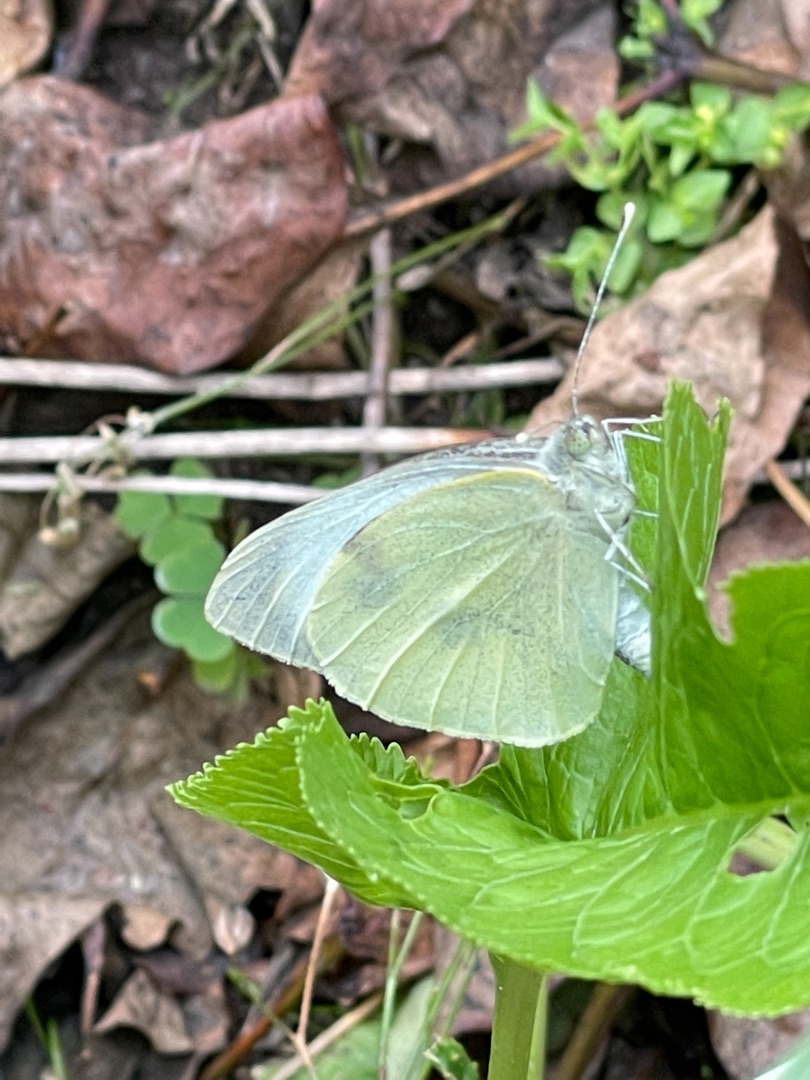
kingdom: Animalia
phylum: Arthropoda
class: Insecta
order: Lepidoptera
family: Pieridae
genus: Pieris
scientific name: Pieris brassicae
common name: Stor kålsommerfugl
